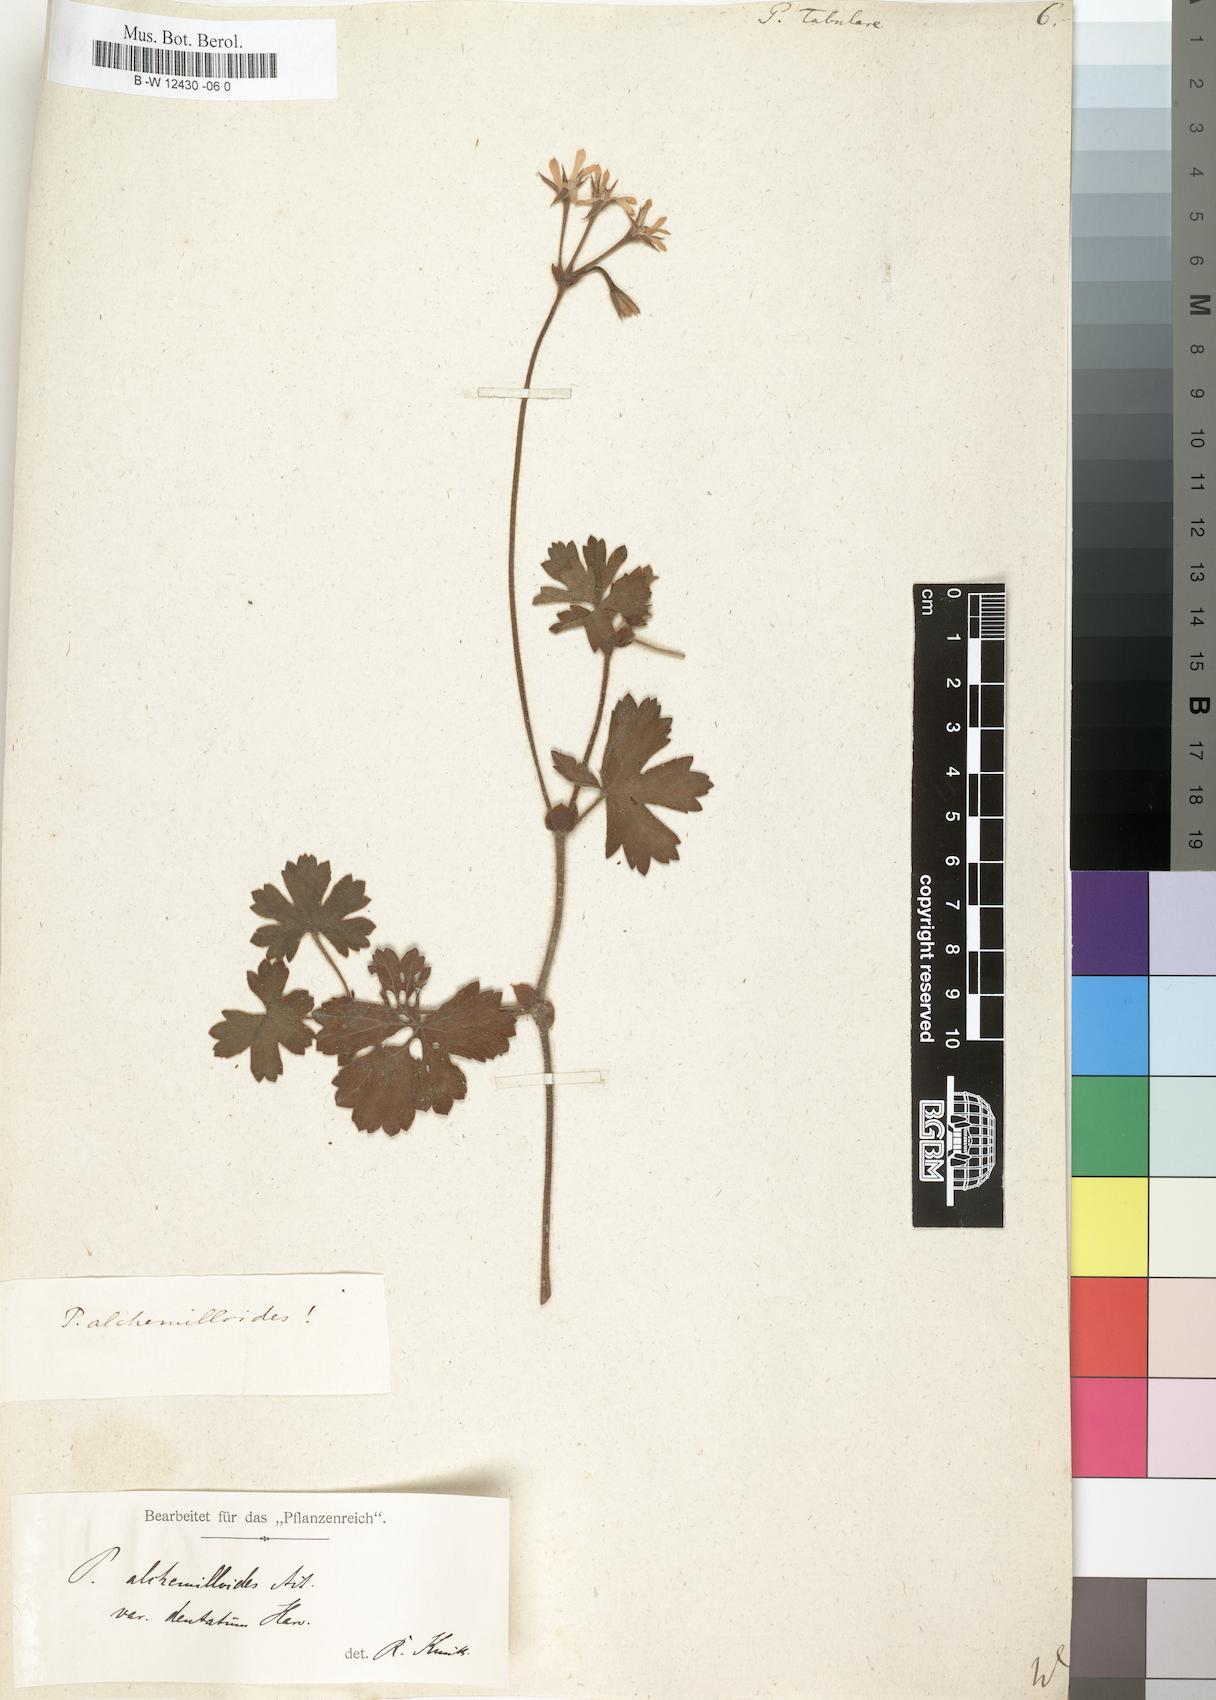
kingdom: Plantae
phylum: Tracheophyta
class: Magnoliopsida
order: Geraniales
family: Geraniaceae
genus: Pelargonium
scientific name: Pelargonium tabulare
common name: Table mountain pelargonium
